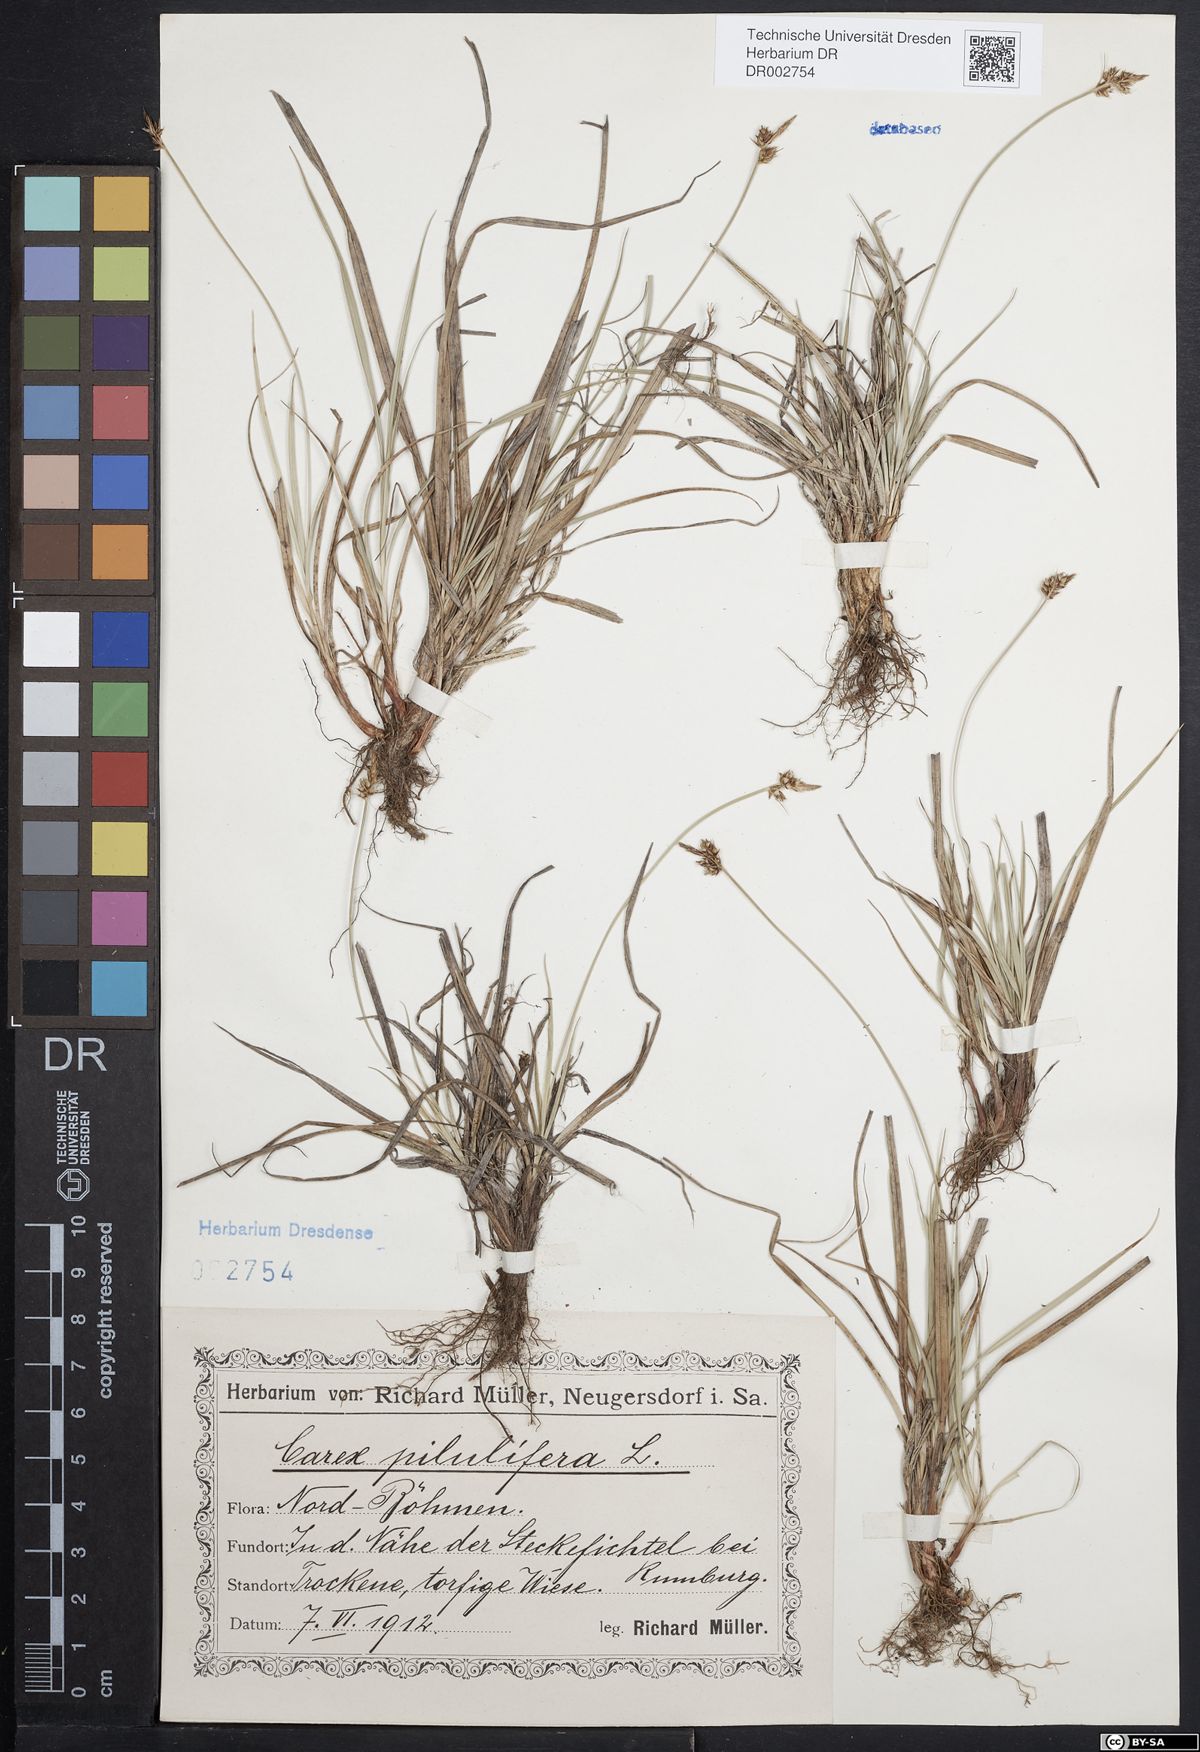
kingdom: Plantae
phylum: Tracheophyta
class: Liliopsida
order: Poales
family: Cyperaceae
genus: Carex
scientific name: Carex caryophyllea
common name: Spring sedge
